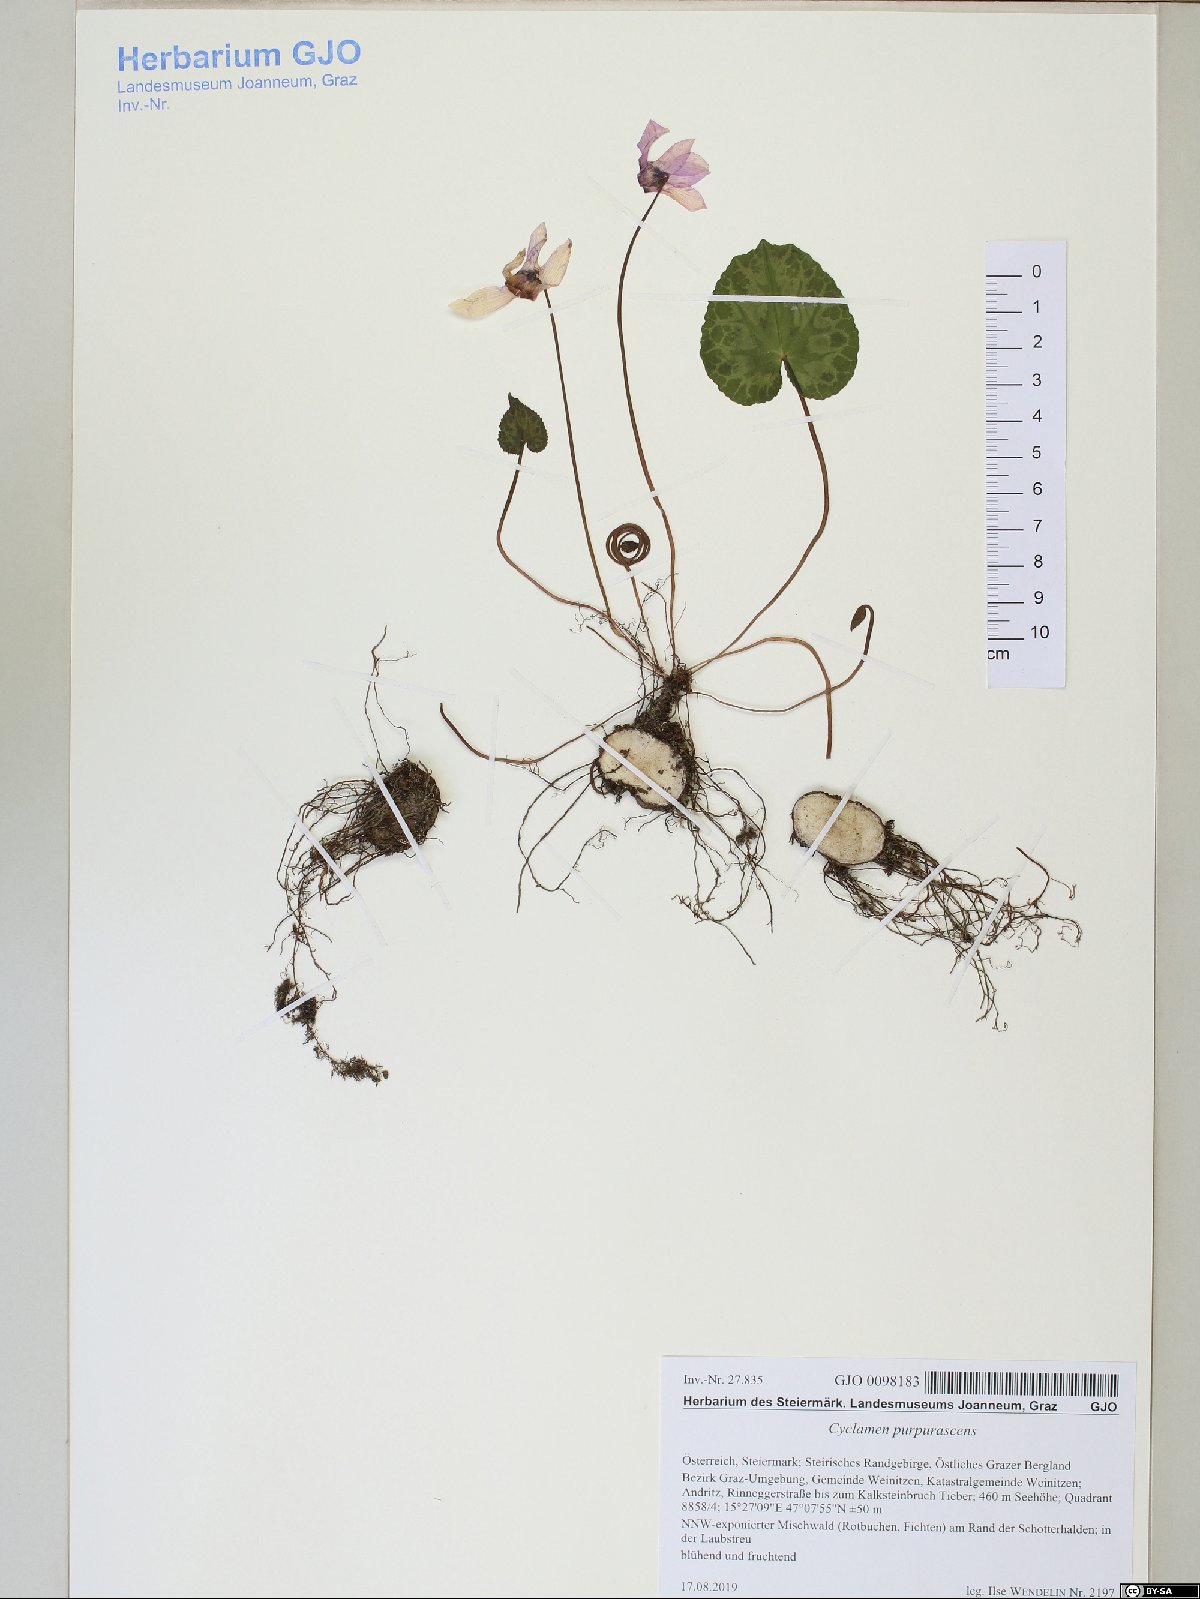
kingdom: Plantae
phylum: Tracheophyta
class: Magnoliopsida
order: Ericales
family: Primulaceae
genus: Cyclamen
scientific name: Cyclamen purpurascens
